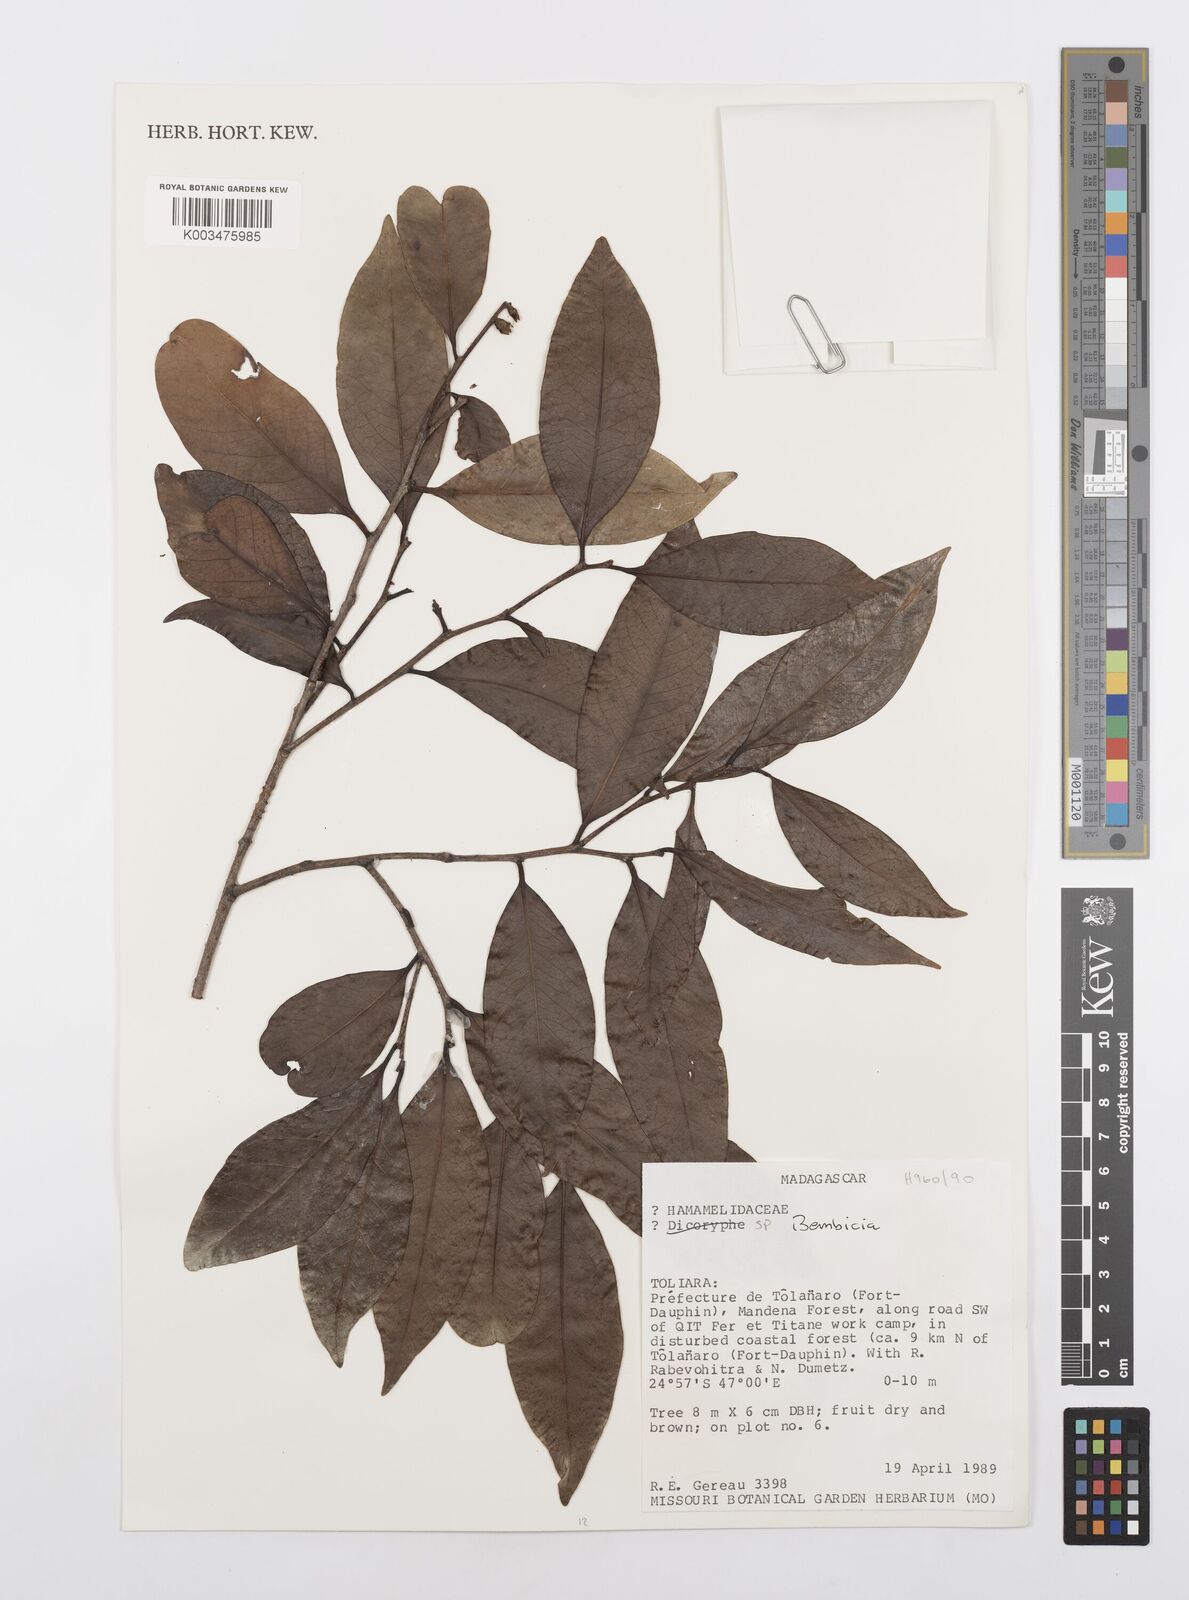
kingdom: Plantae
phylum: Tracheophyta
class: Magnoliopsida
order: Malpighiales
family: Salicaceae
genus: Bembicia
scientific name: Bembicia
